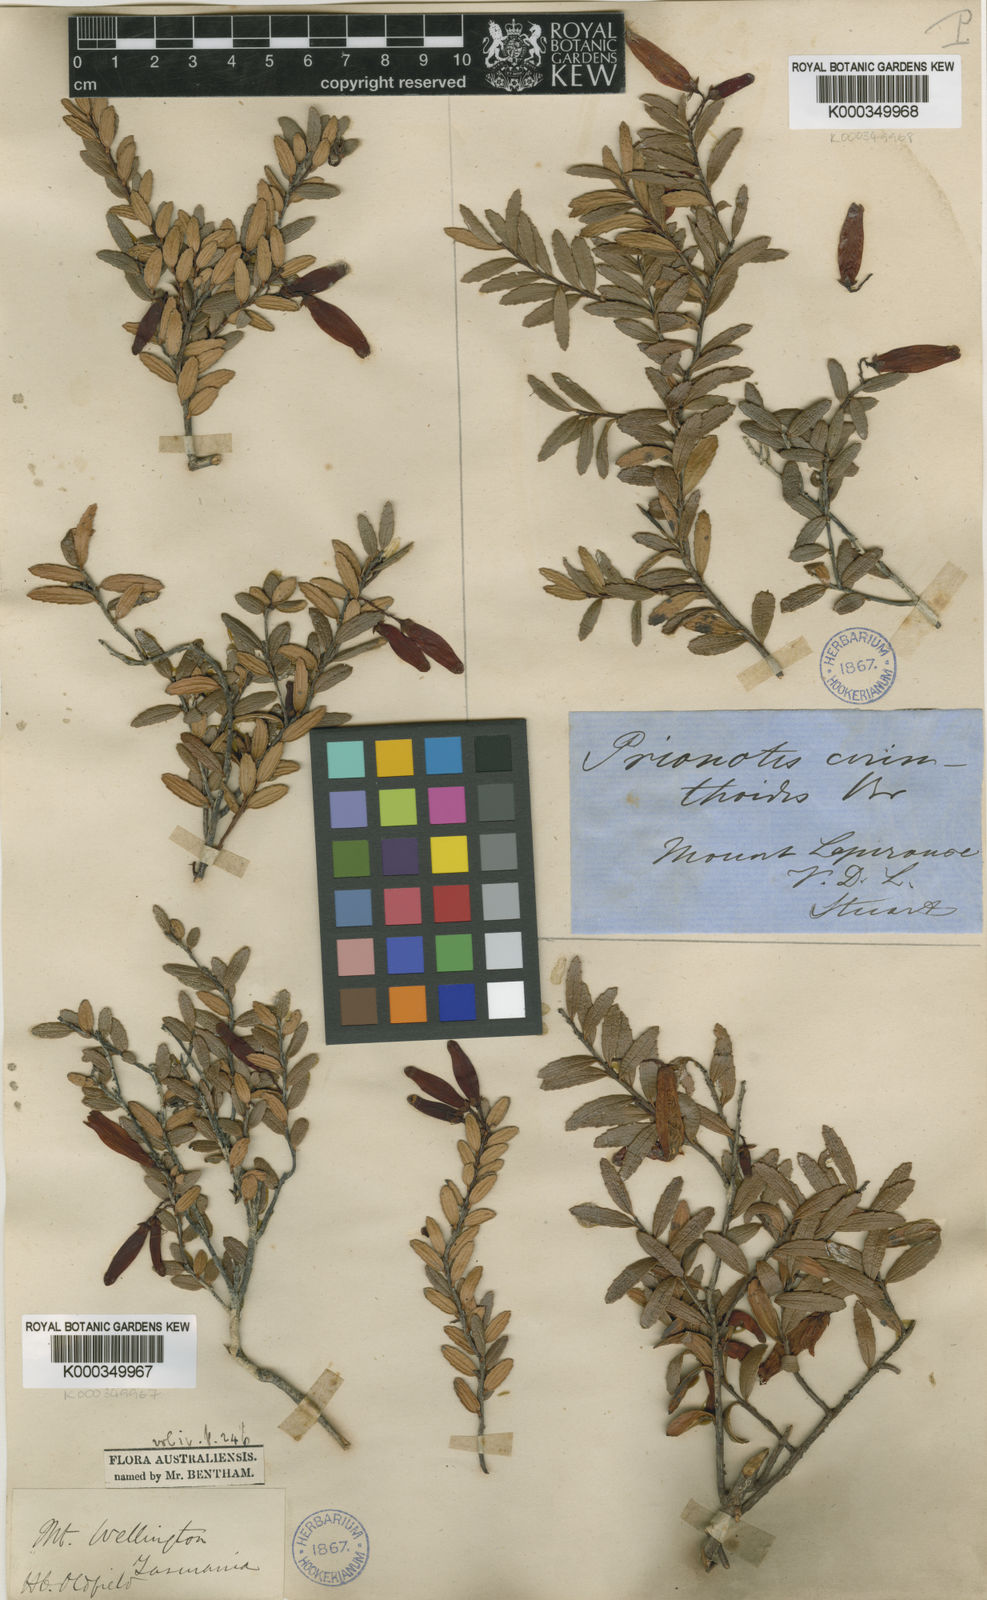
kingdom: Plantae
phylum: Tracheophyta
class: Magnoliopsida
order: Ericales
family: Ericaceae
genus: Prionotes
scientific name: Prionotes cerinthoides
